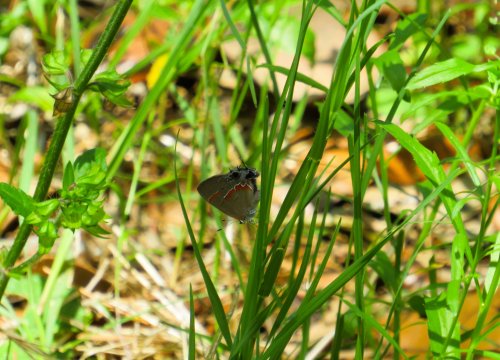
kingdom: Animalia
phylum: Arthropoda
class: Insecta
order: Lepidoptera
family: Lycaenidae
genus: Calycopis
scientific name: Calycopis cecrops
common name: Red-banded Hairstreak
